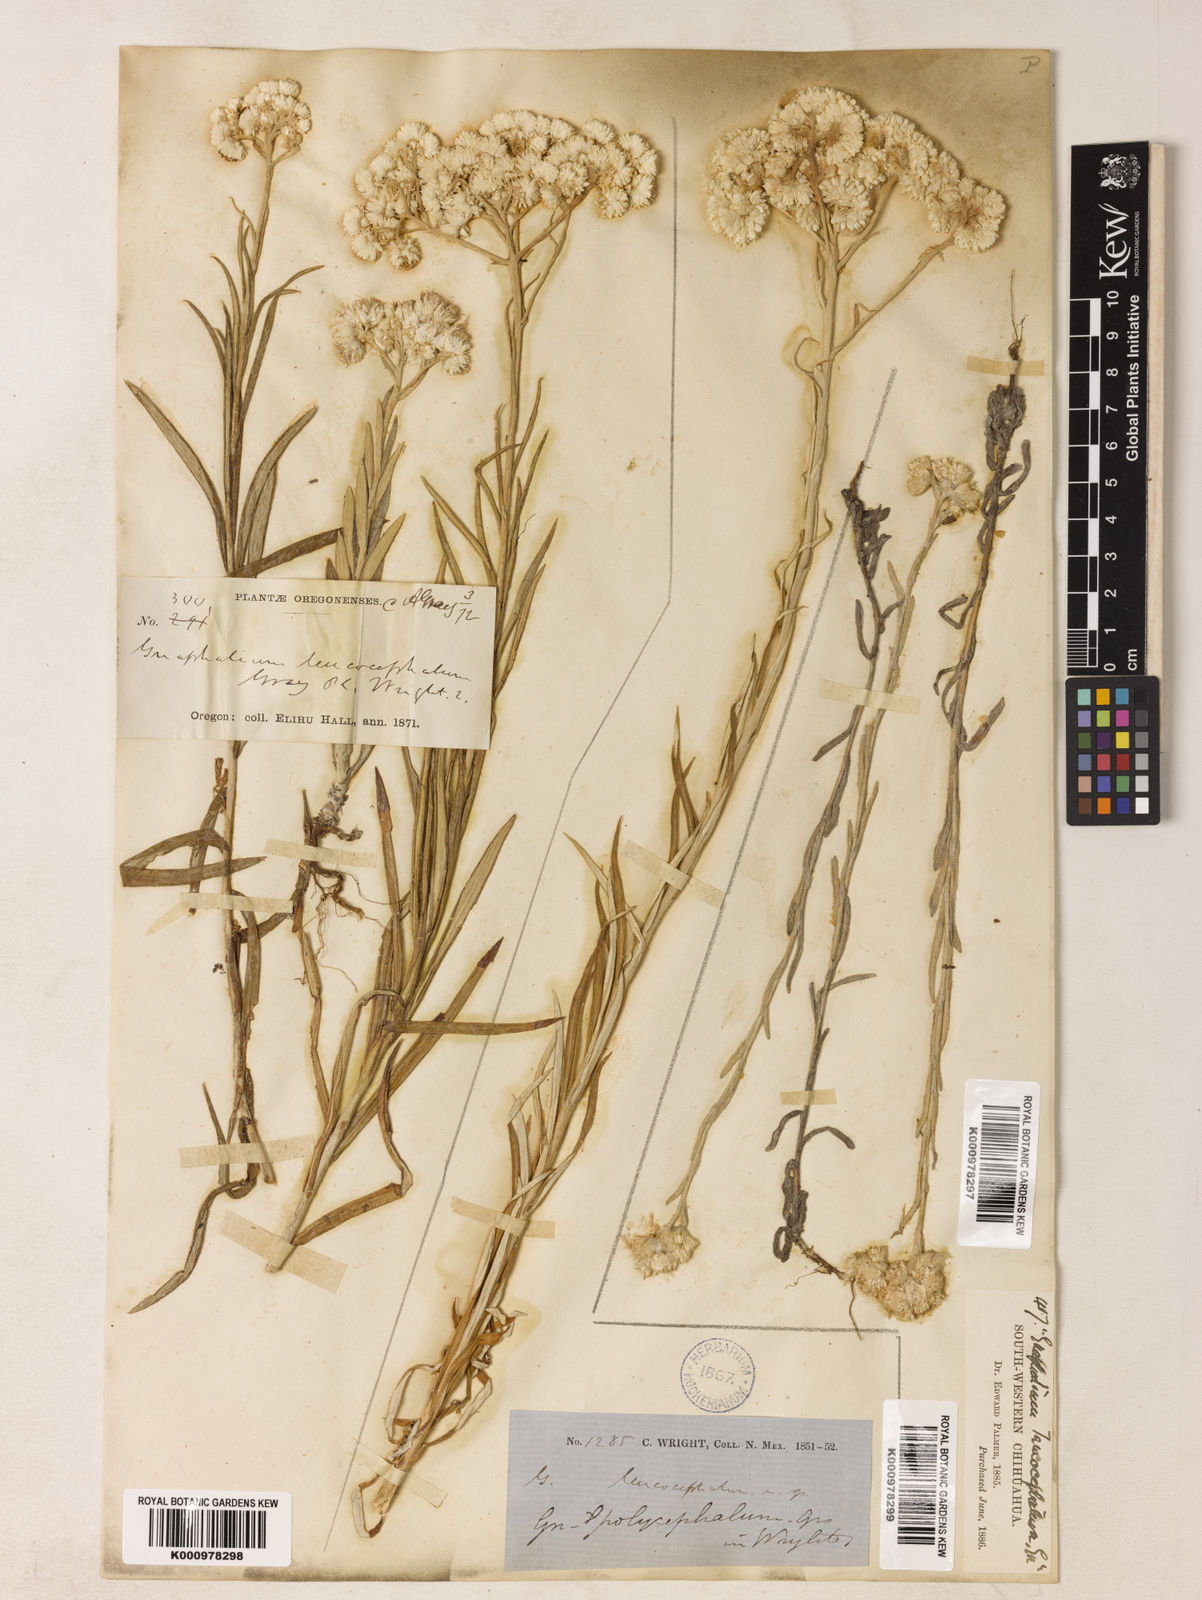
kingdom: Plantae
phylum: Tracheophyta
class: Magnoliopsida
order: Asterales
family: Asteraceae
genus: Pseudognaphalium
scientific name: Pseudognaphalium leucocephalum
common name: White cudweed
